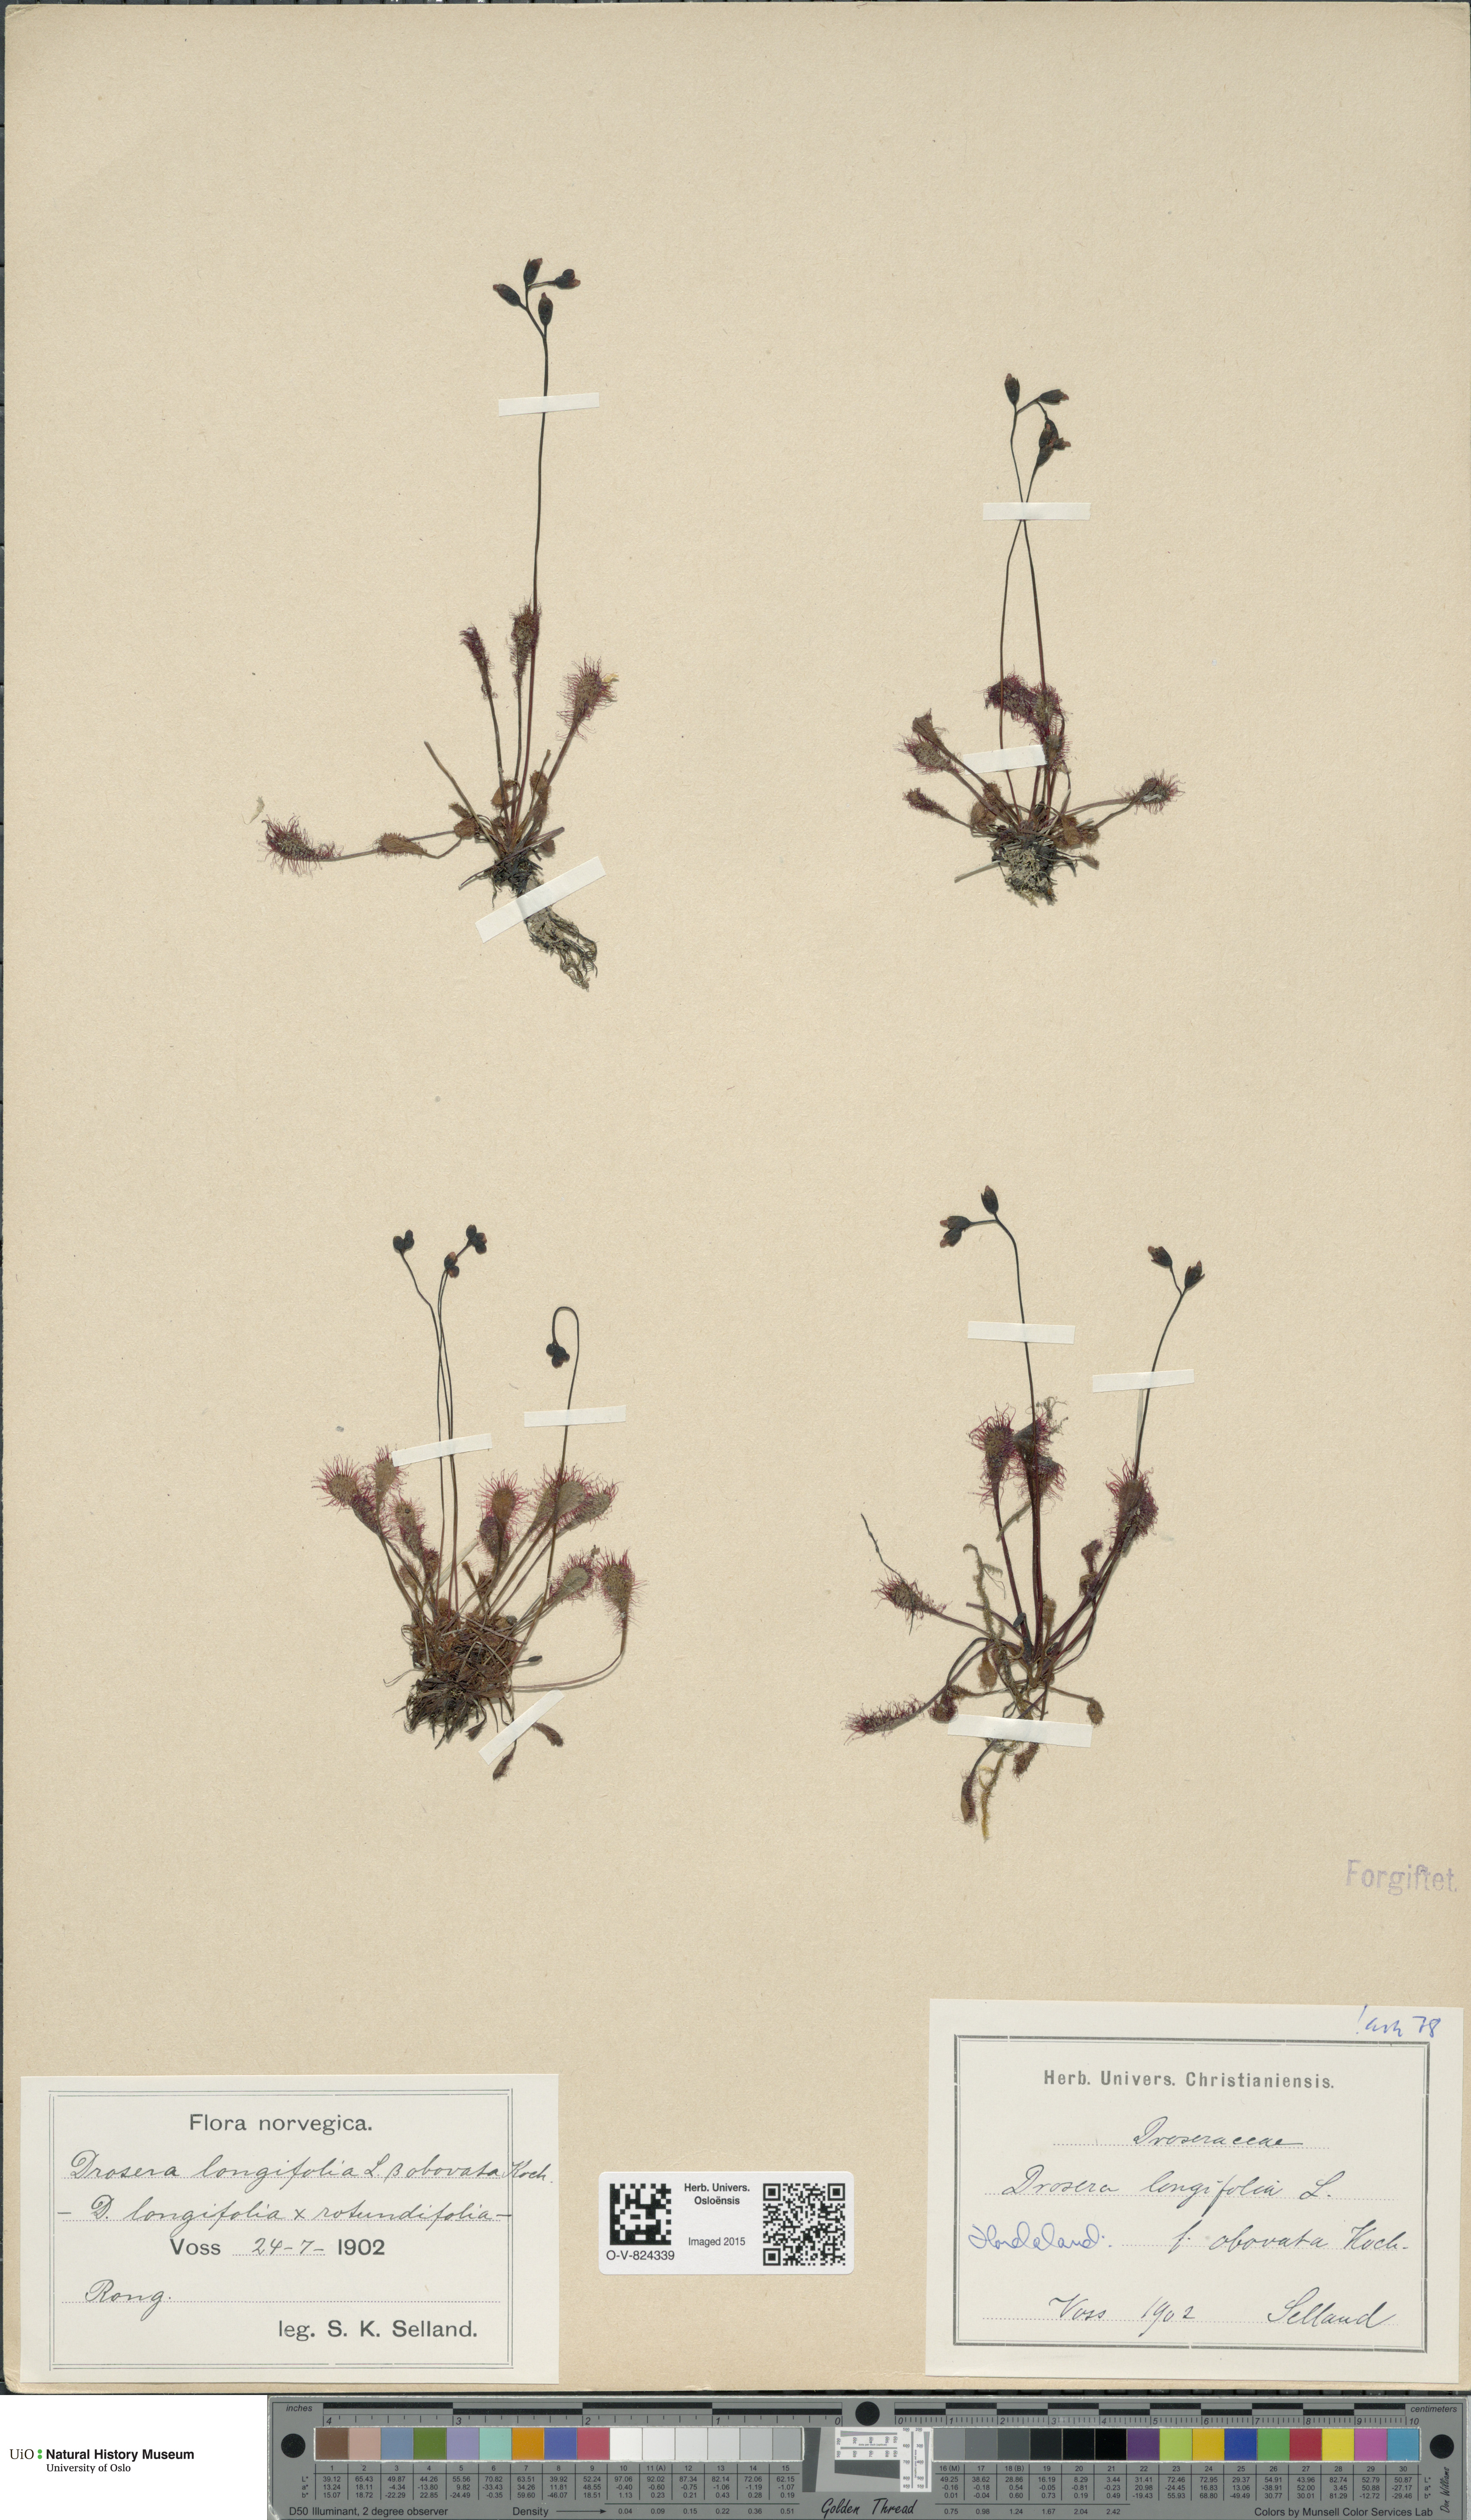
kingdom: Plantae
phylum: Tracheophyta
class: Magnoliopsida
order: Caryophyllales
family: Droseraceae
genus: Drosera
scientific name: Drosera
